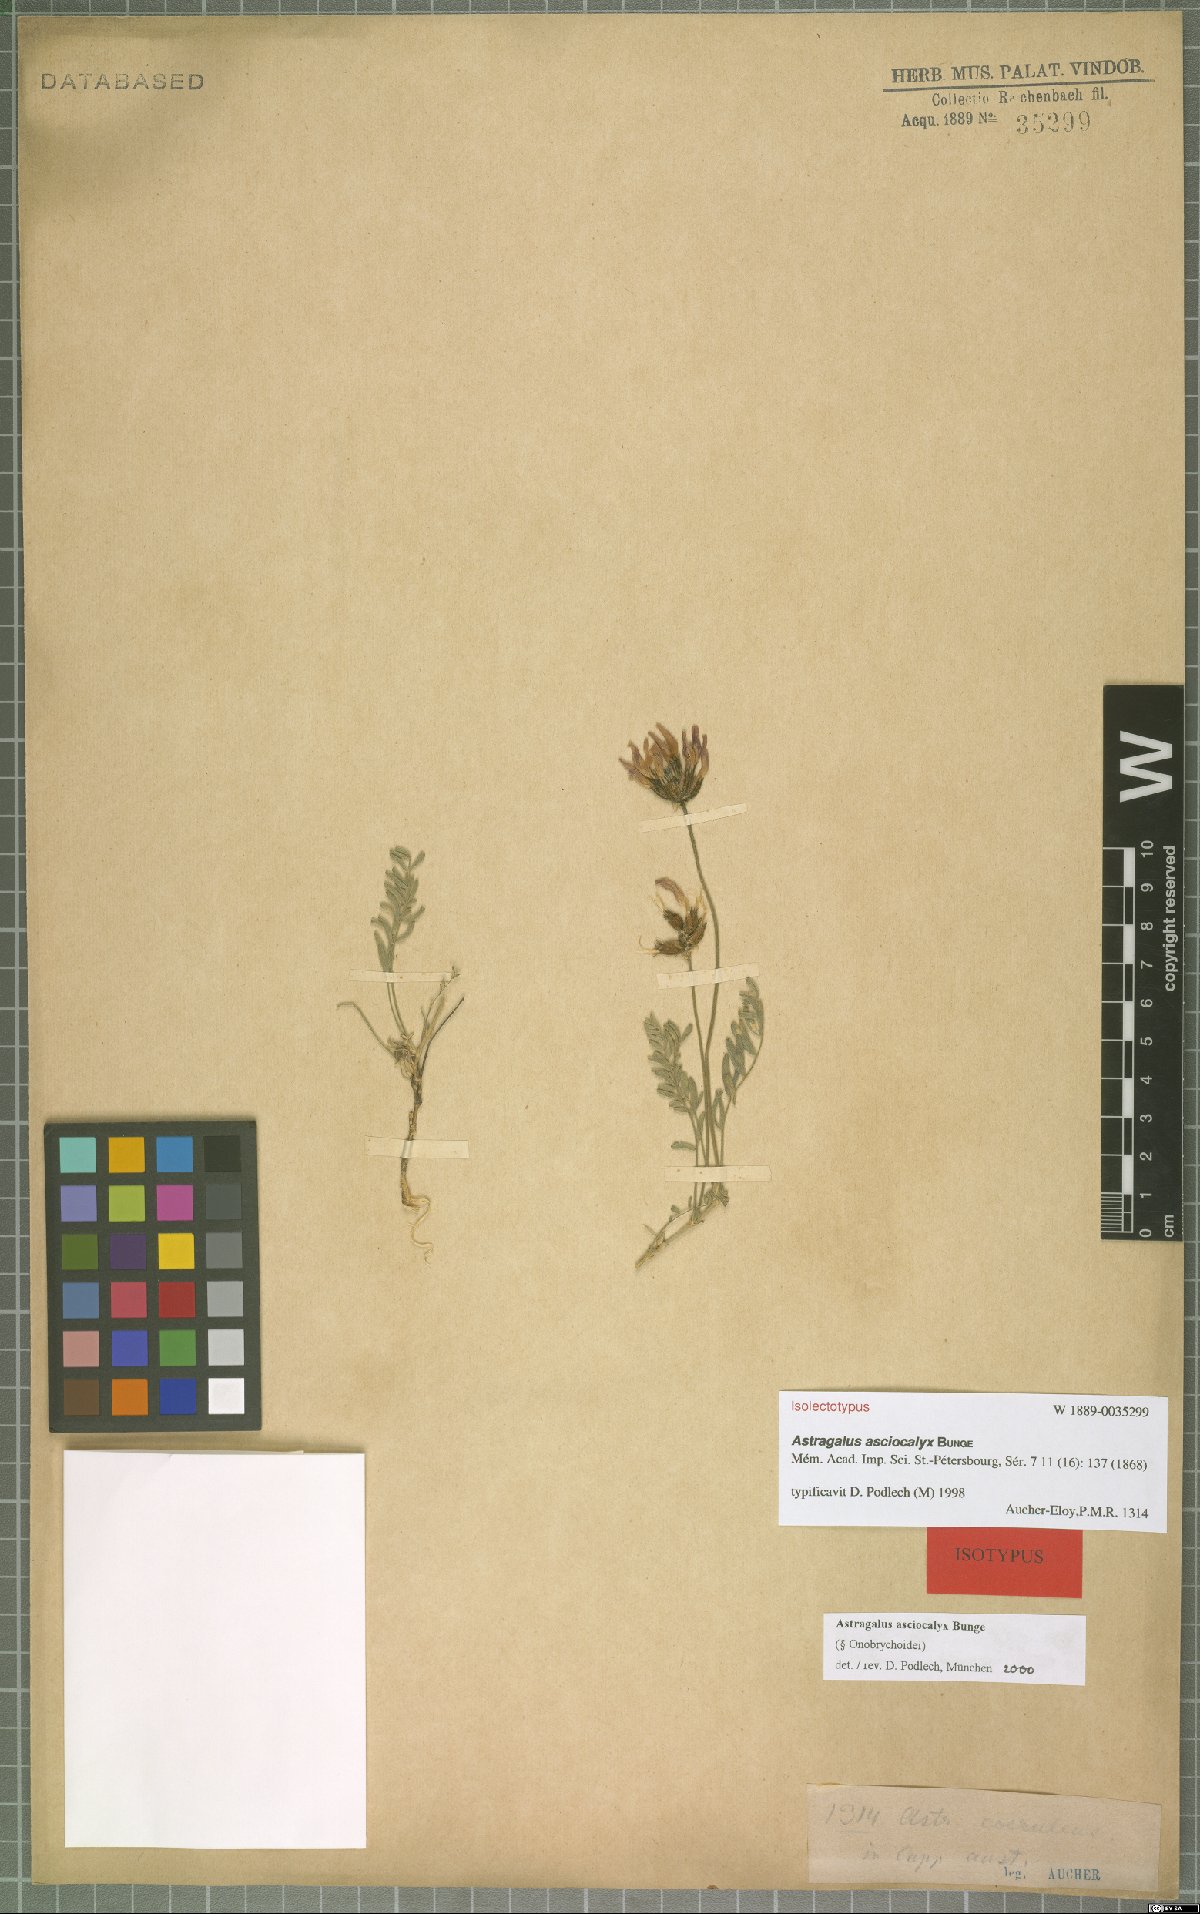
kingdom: Plantae
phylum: Tracheophyta
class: Magnoliopsida
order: Fabales
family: Fabaceae
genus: Astragalus
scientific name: Astragalus asciocalyx
